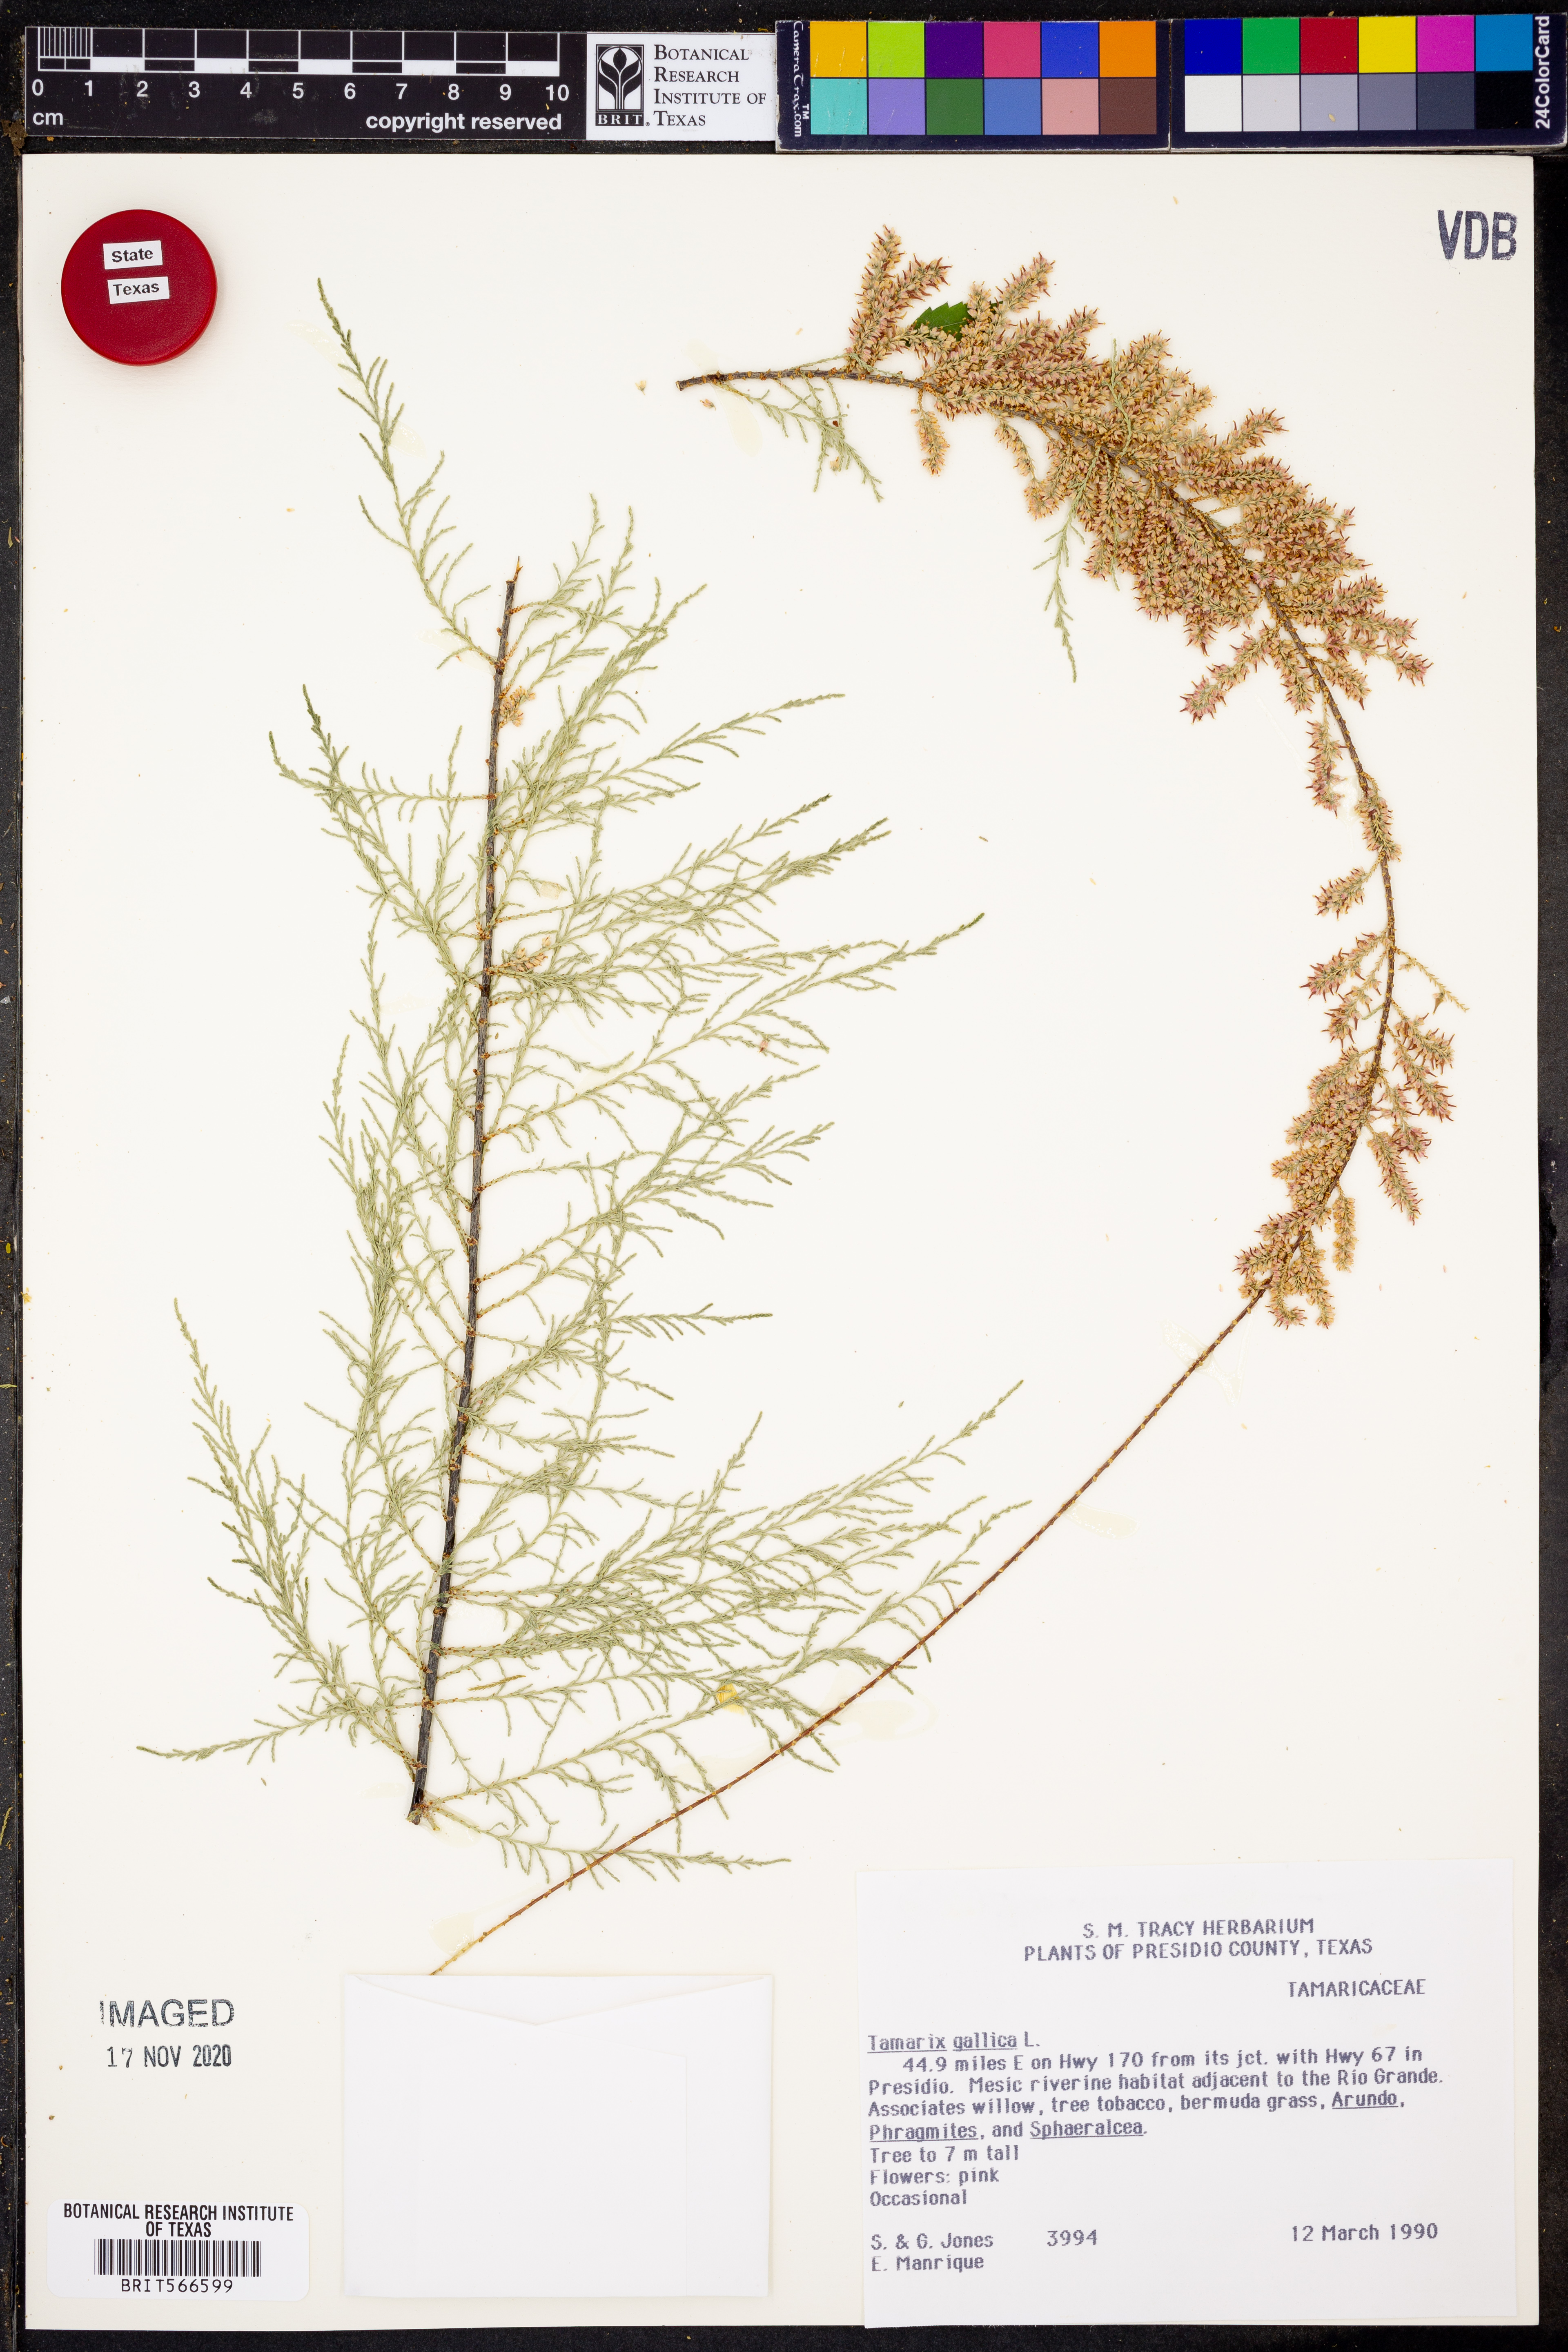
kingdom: Plantae
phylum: Tracheophyta
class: Magnoliopsida
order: Caryophyllales
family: Tamaricaceae
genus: Tamarix
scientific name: Tamarix gallica
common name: Tamarisk
